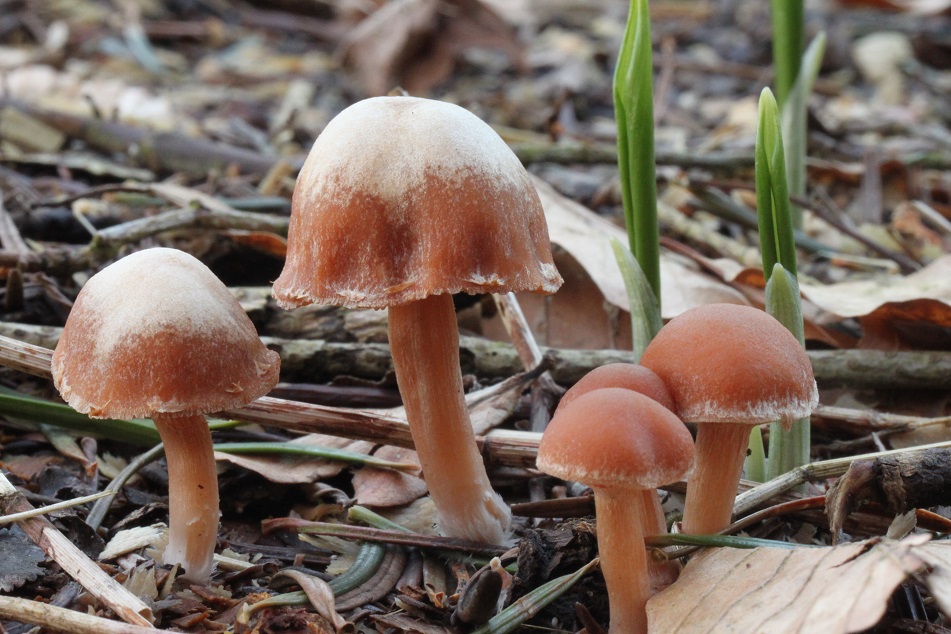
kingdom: Fungi
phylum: Basidiomycota
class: Agaricomycetes
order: Agaricales
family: Tubariaceae
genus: Tubaria
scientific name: Tubaria furfuracea
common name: kliddet fnughat
